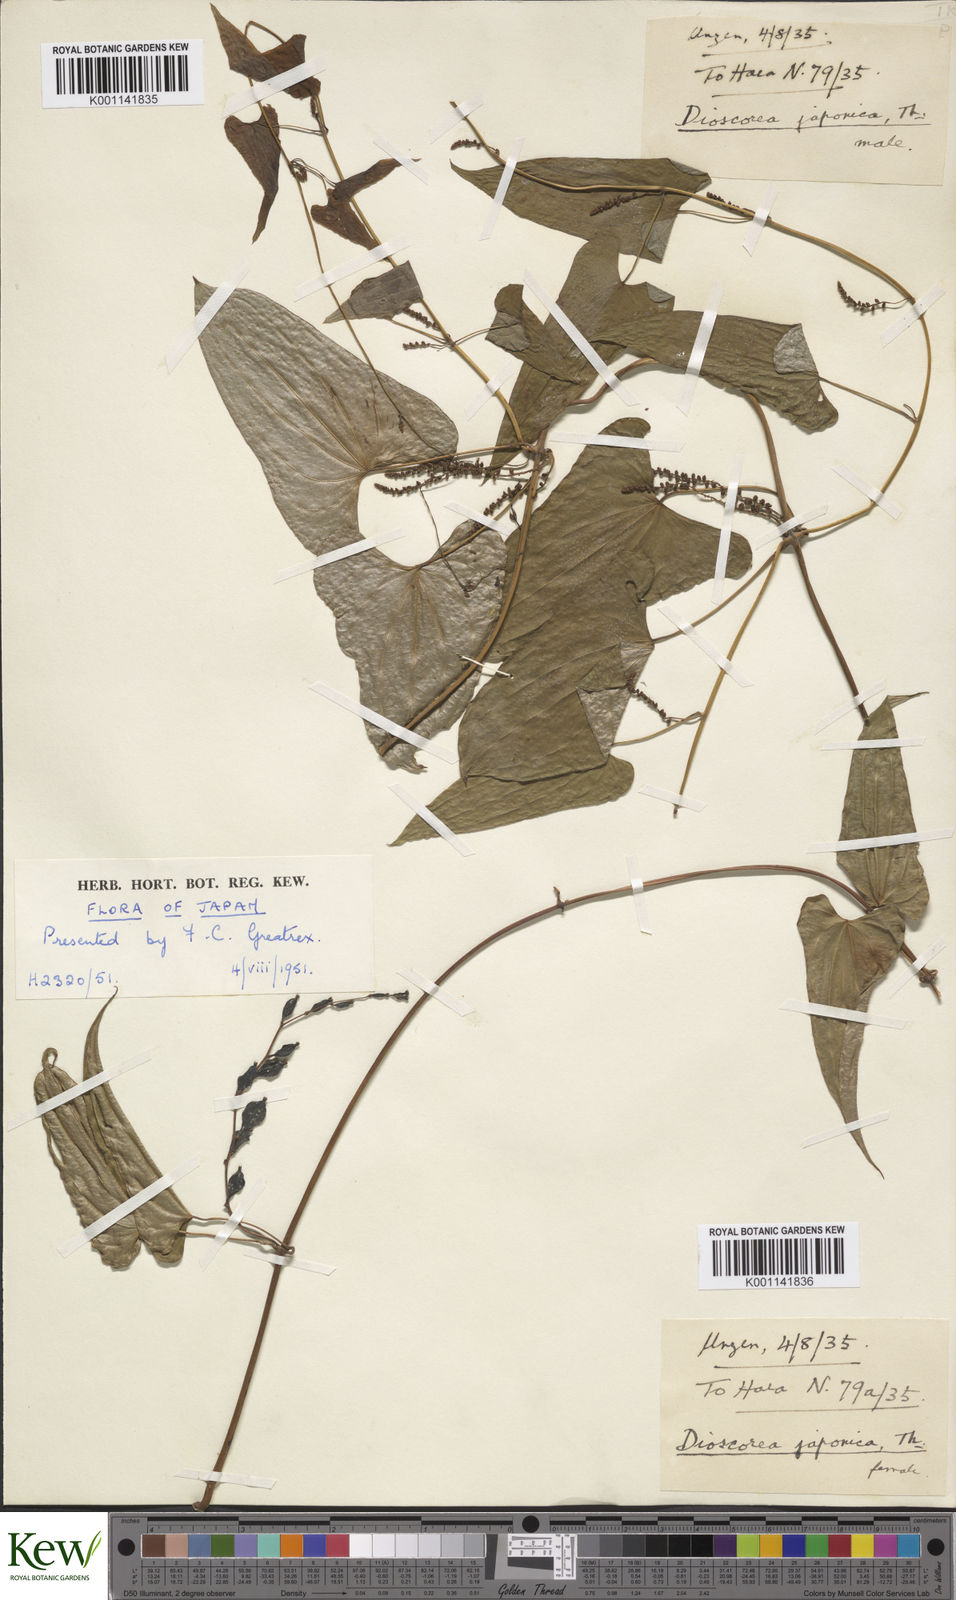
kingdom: Plantae
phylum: Tracheophyta
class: Liliopsida
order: Dioscoreales
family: Dioscoreaceae
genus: Dioscorea
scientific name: Dioscorea japonica
